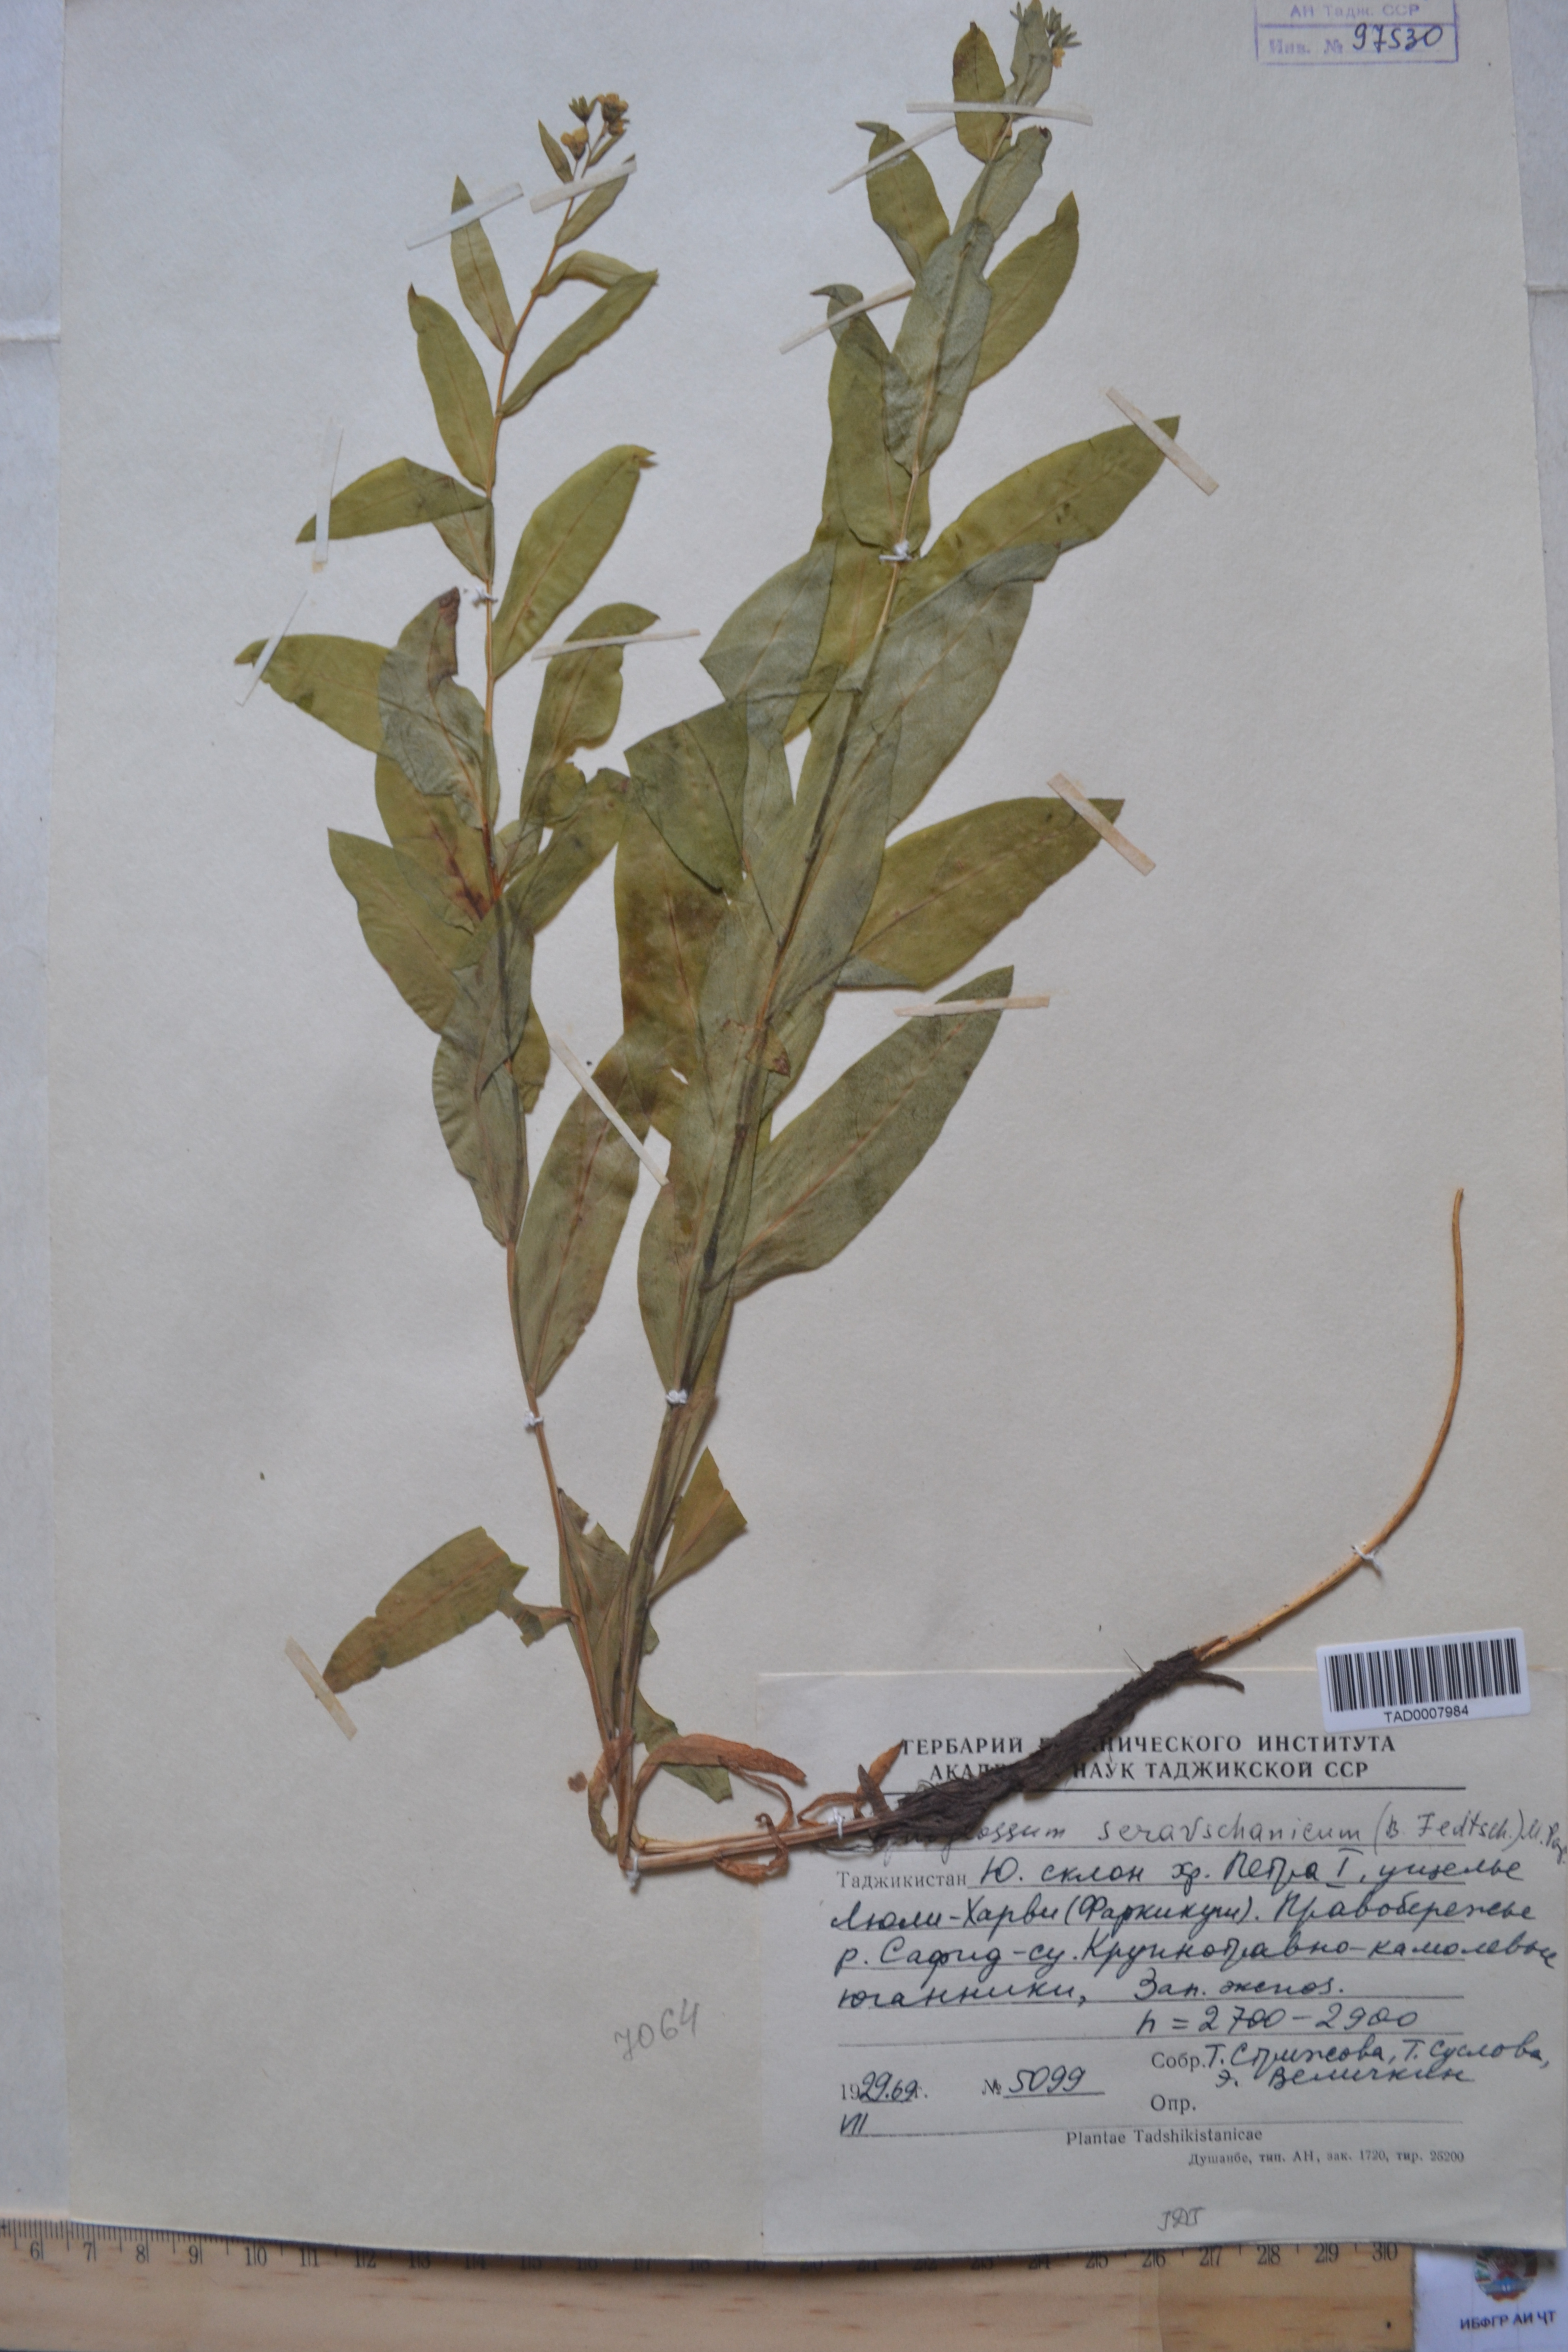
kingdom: Plantae
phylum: Tracheophyta
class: Magnoliopsida
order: Boraginales
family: Boraginaceae
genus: Cynoglossum
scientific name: Cynoglossum seravschanicum
